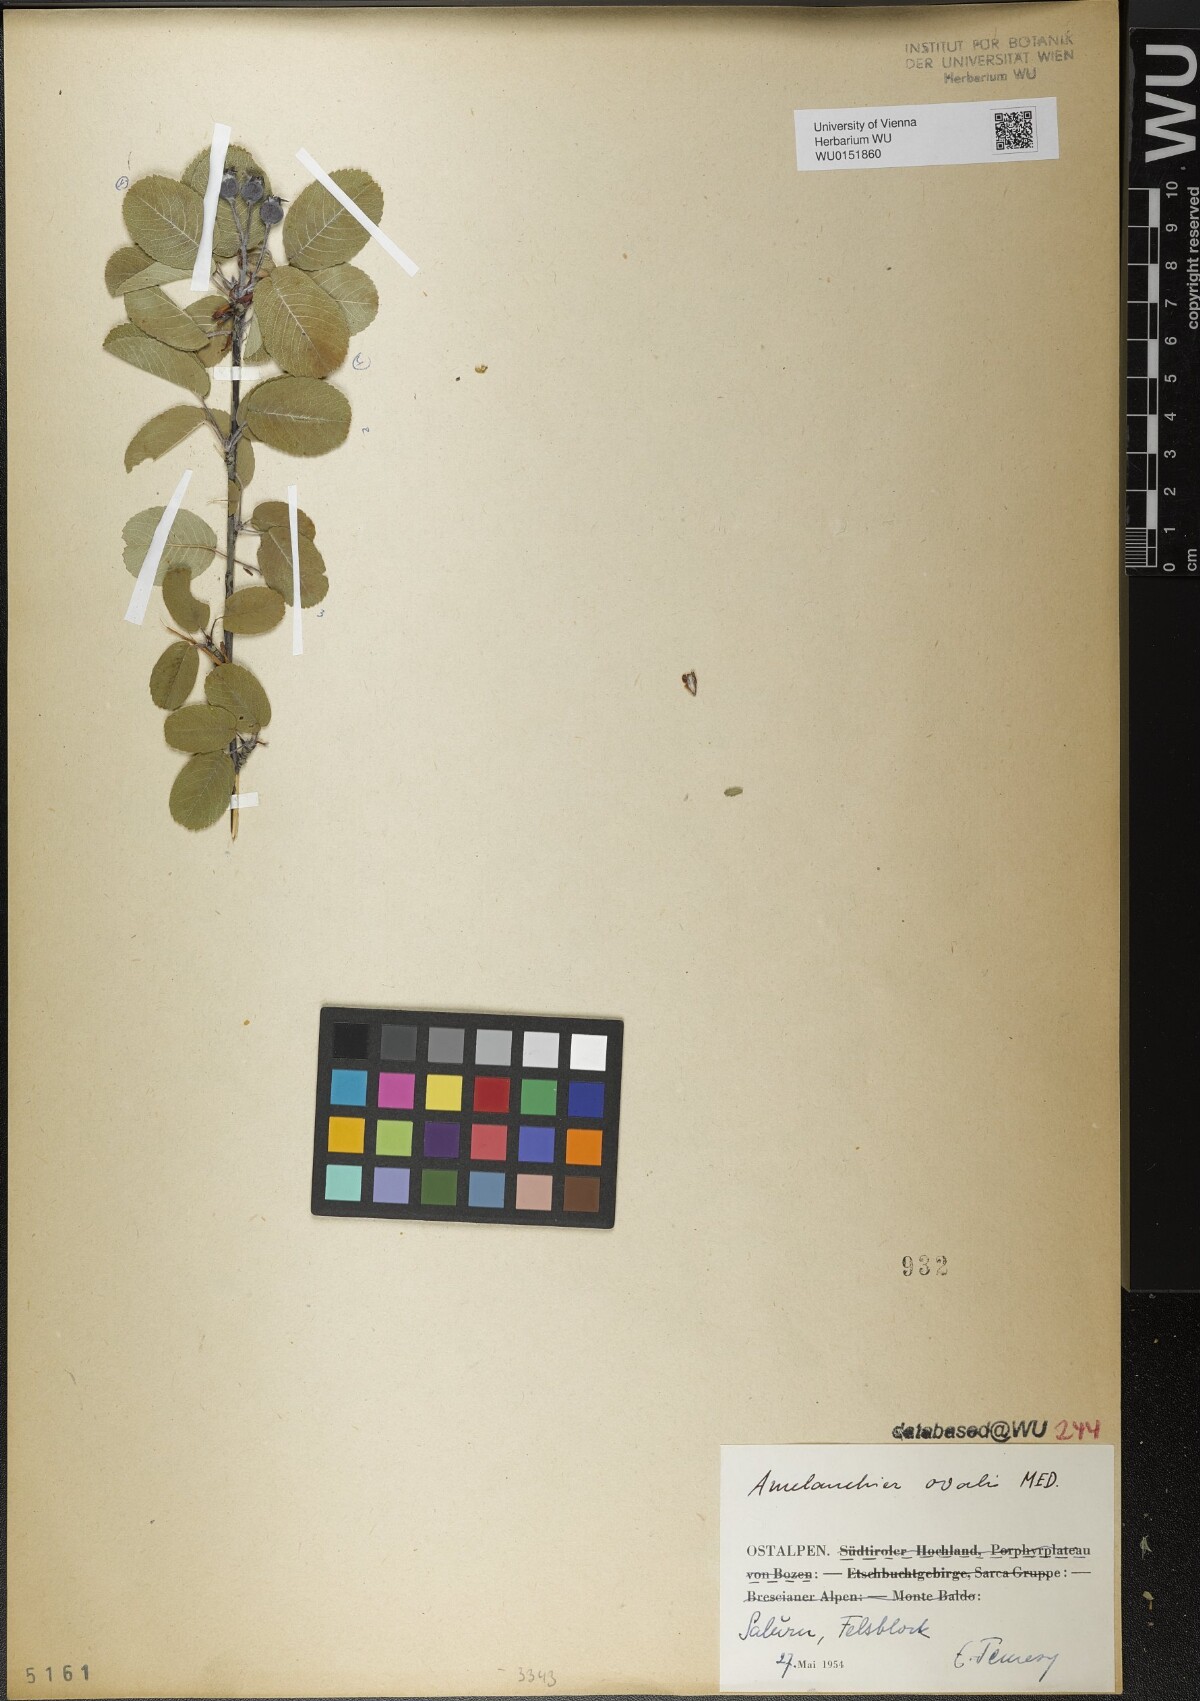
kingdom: Plantae
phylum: Tracheophyta
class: Magnoliopsida
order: Rosales
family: Rosaceae
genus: Amelanchier
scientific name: Amelanchier ovalis
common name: Serviceberry
